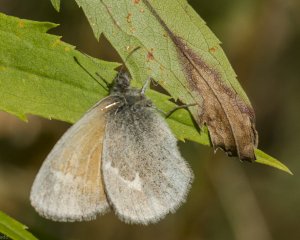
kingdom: Animalia
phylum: Arthropoda
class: Insecta
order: Lepidoptera
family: Nymphalidae
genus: Coenonympha
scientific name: Coenonympha tullia
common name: Large Heath
